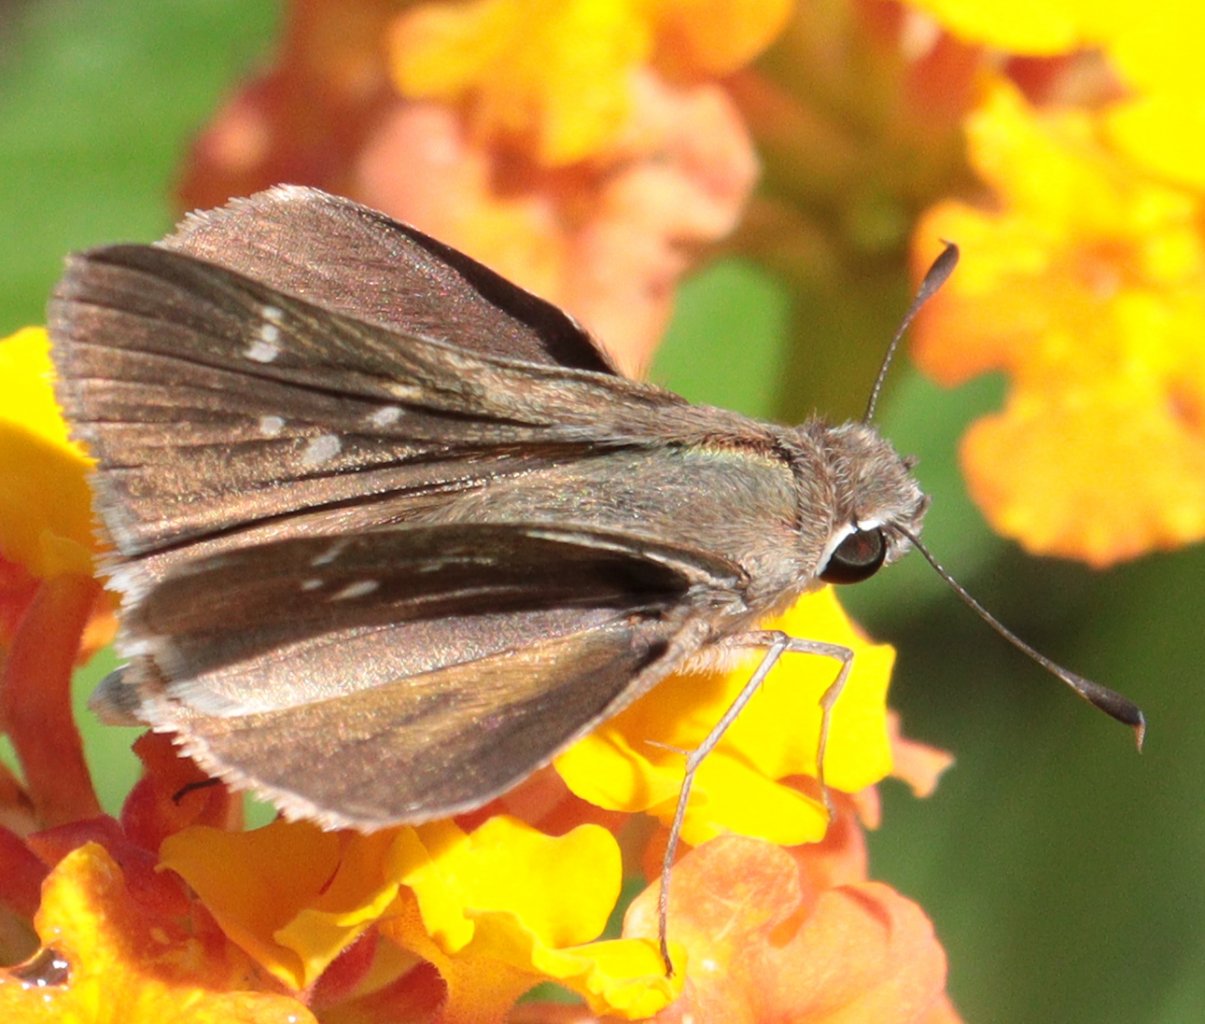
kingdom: Animalia
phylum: Arthropoda
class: Insecta
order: Lepidoptera
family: Hesperiidae
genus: Lerodea
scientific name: Lerodea eufala
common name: Eufala Skipper
